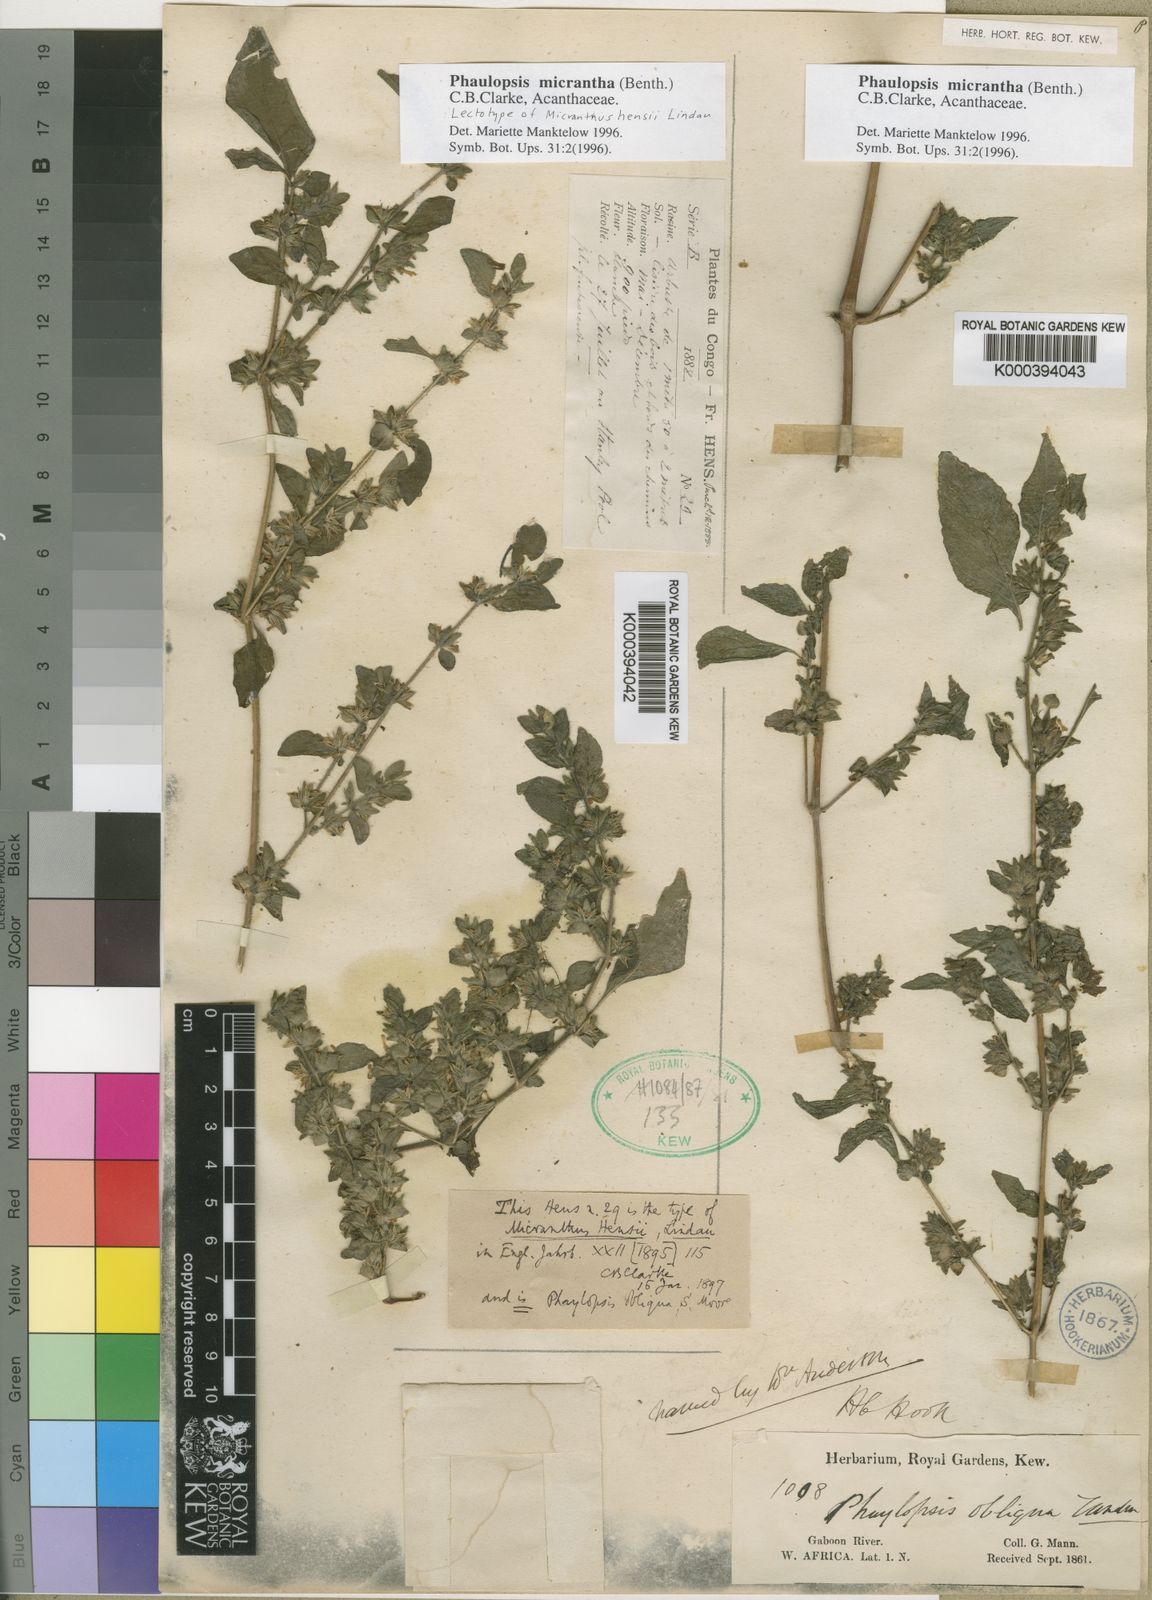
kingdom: Plantae
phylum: Tracheophyta
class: Magnoliopsida
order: Lamiales
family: Acanthaceae
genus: Phaulopsis
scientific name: Phaulopsis micrantha
